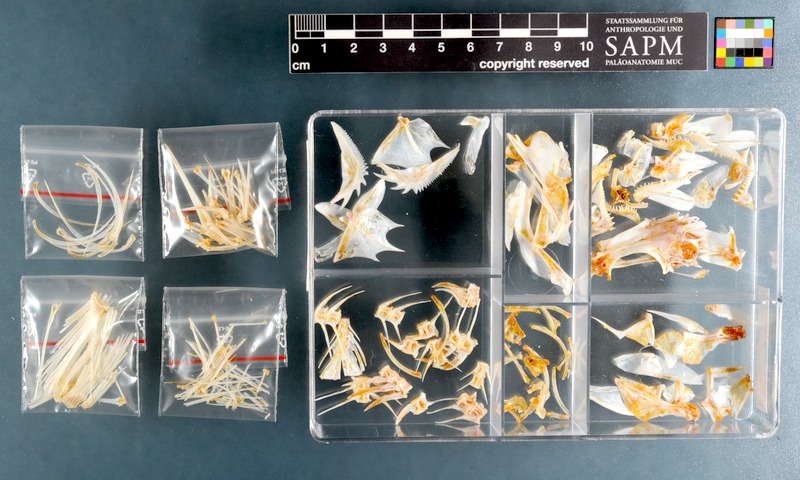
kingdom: Animalia
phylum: Chordata
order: Perciformes
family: Serranidae
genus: Epinephelus
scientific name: Epinephelus tauvina
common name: Greasy grouper
